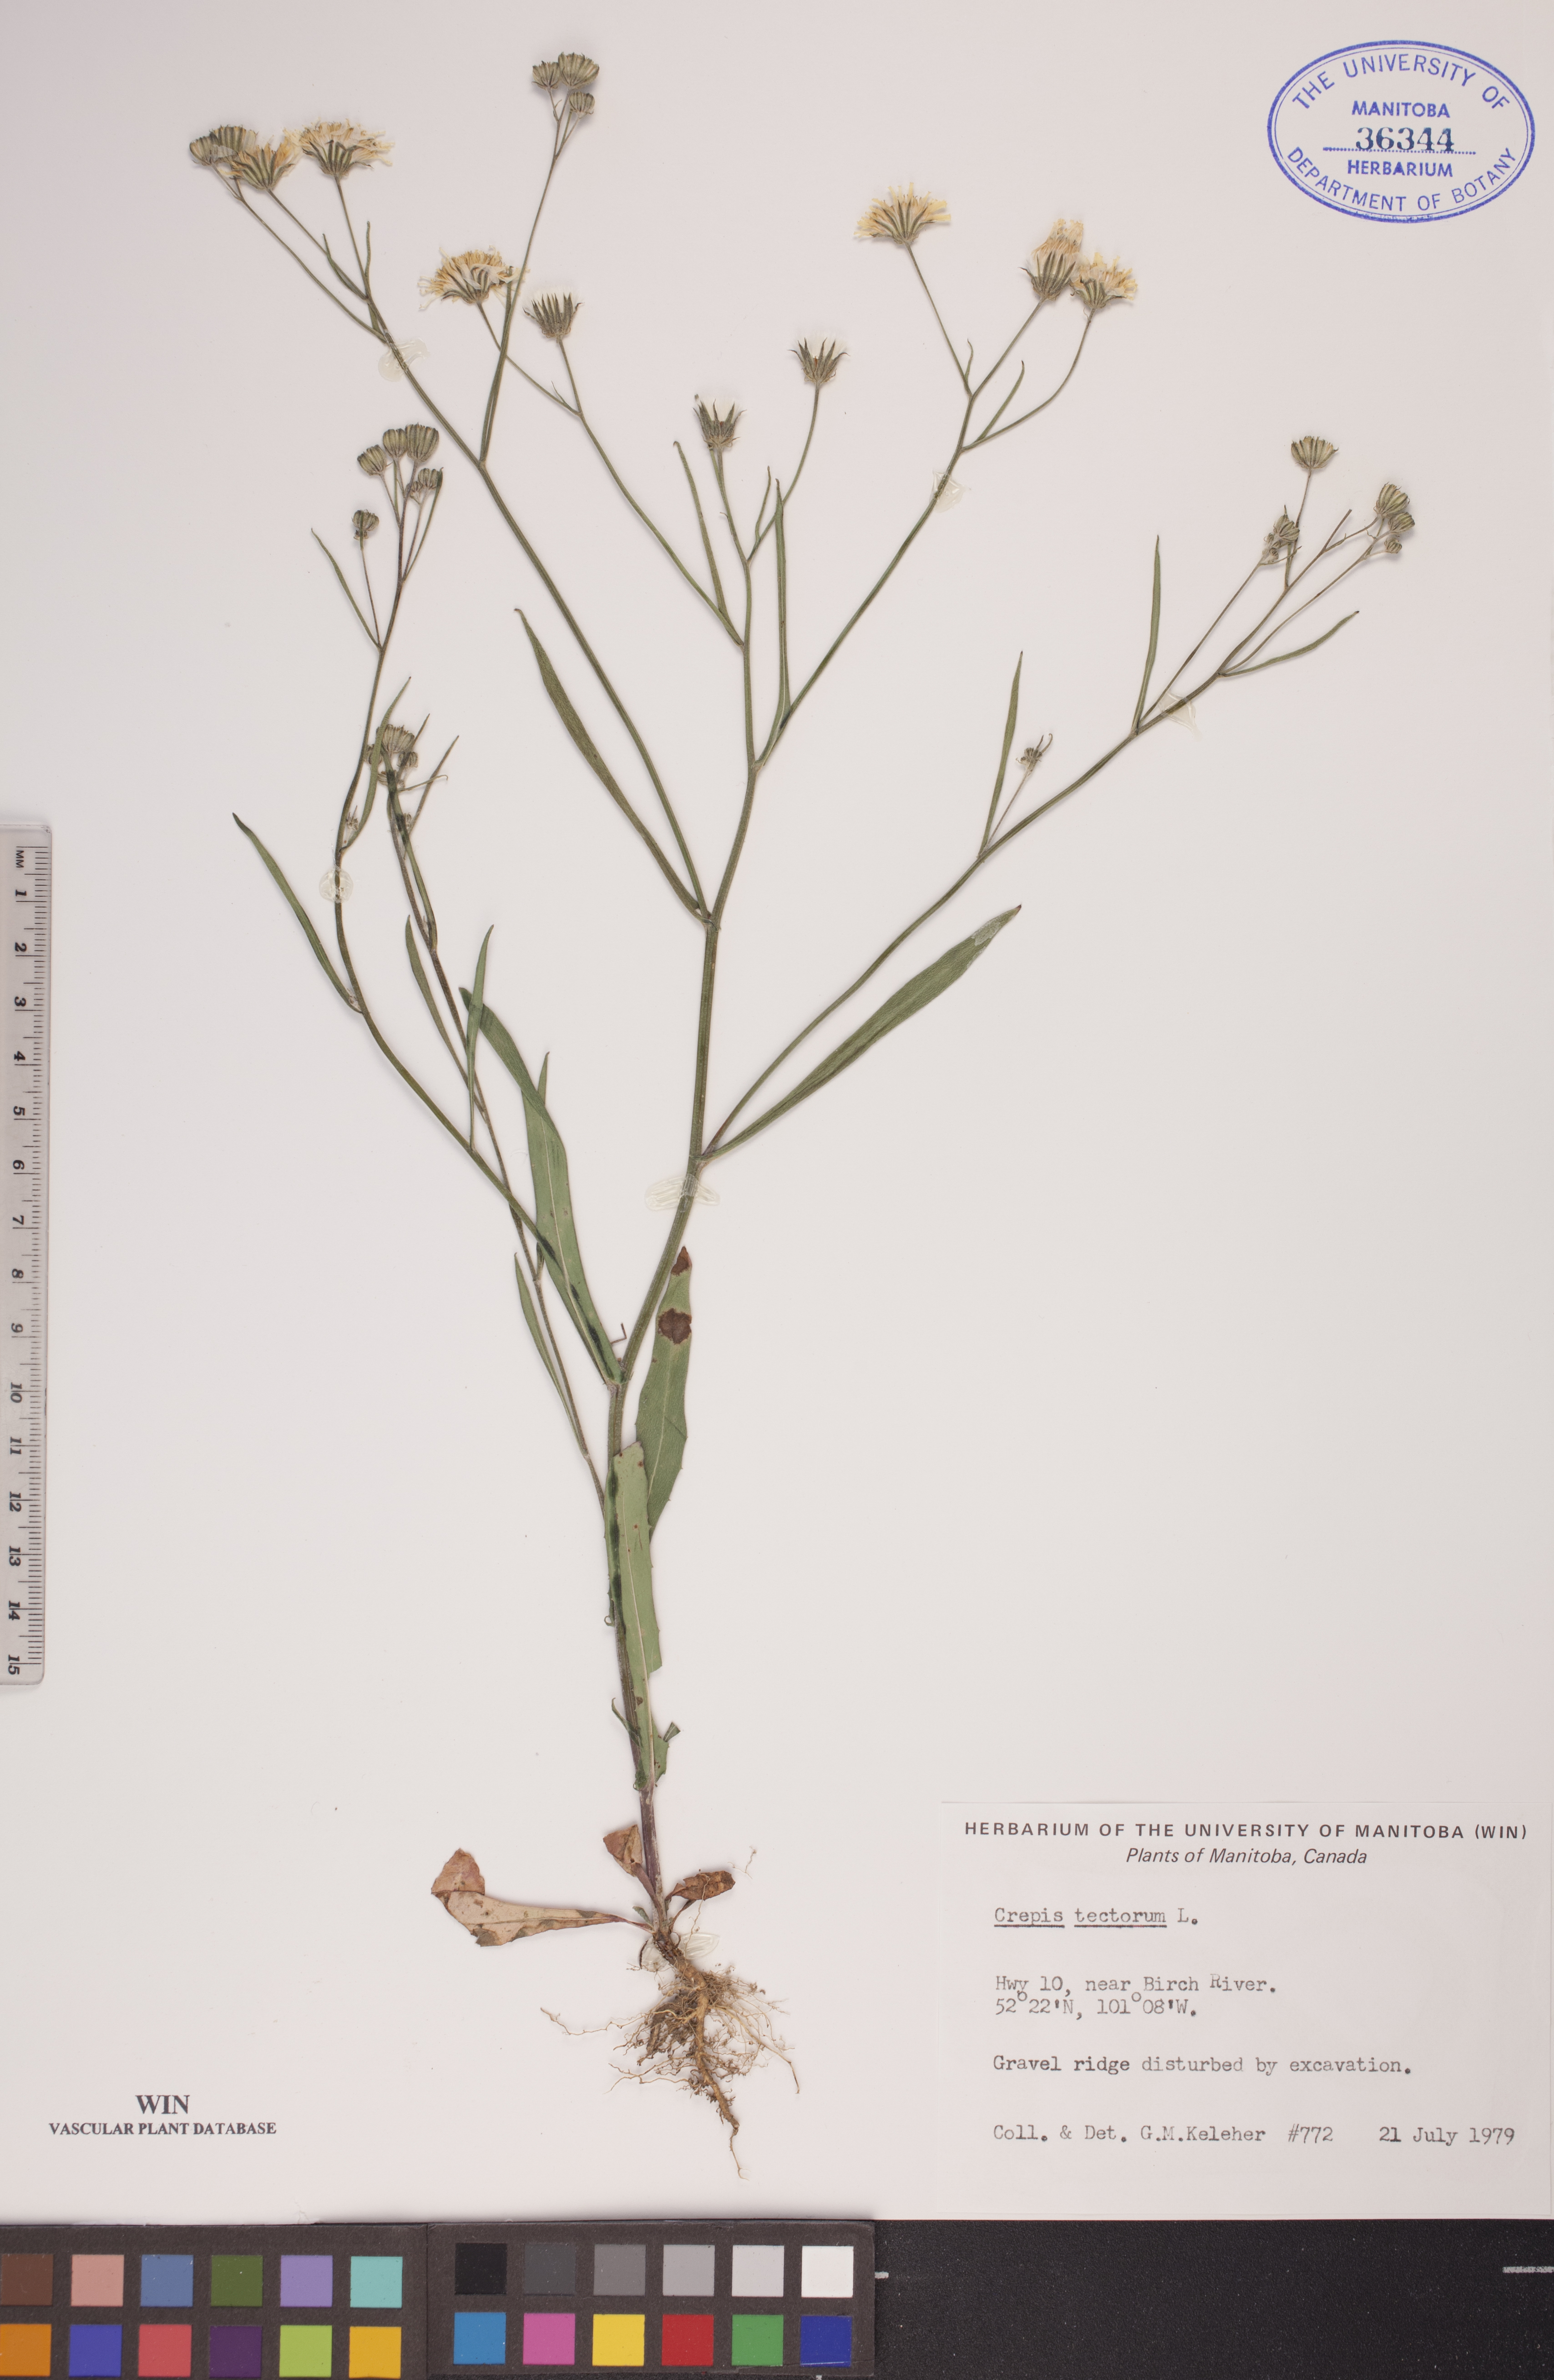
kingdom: Plantae
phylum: Tracheophyta
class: Magnoliopsida
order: Asterales
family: Asteraceae
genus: Crepis
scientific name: Crepis tectorum
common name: Narrow-leaved hawk's-beard
